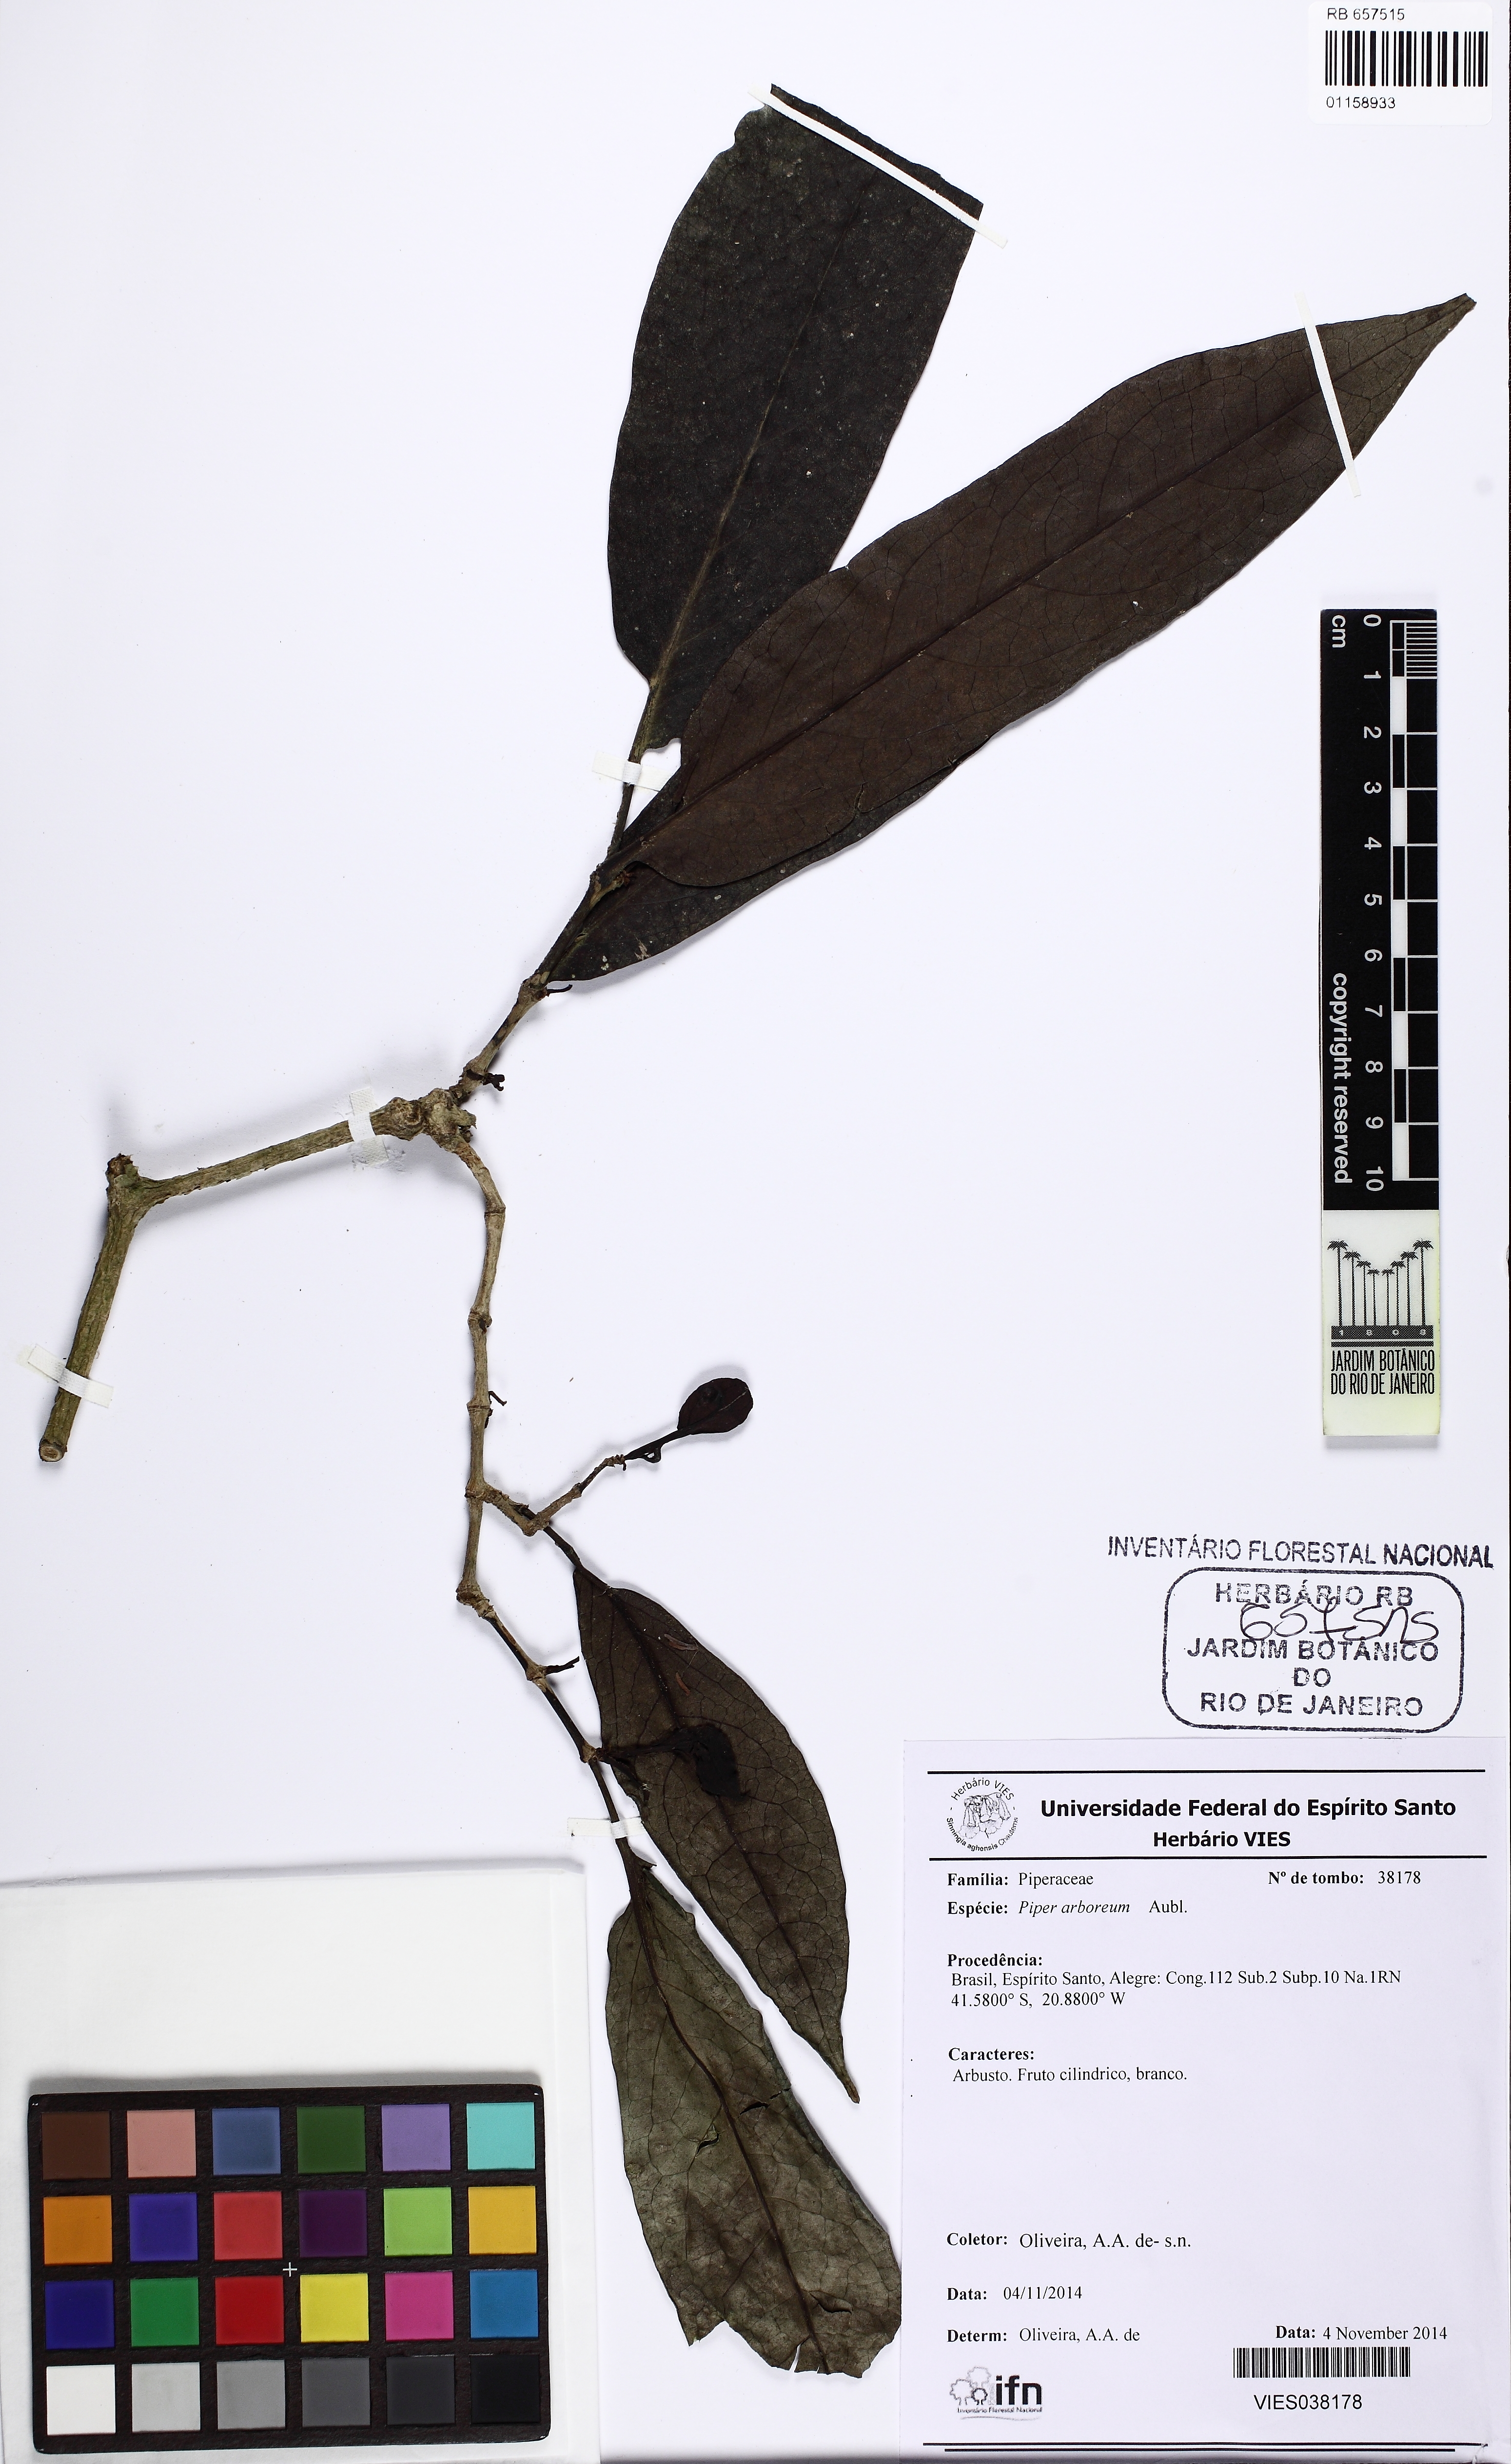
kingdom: Plantae
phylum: Tracheophyta
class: Magnoliopsida
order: Piperales
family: Piperaceae
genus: Piper
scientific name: Piper arboreum
